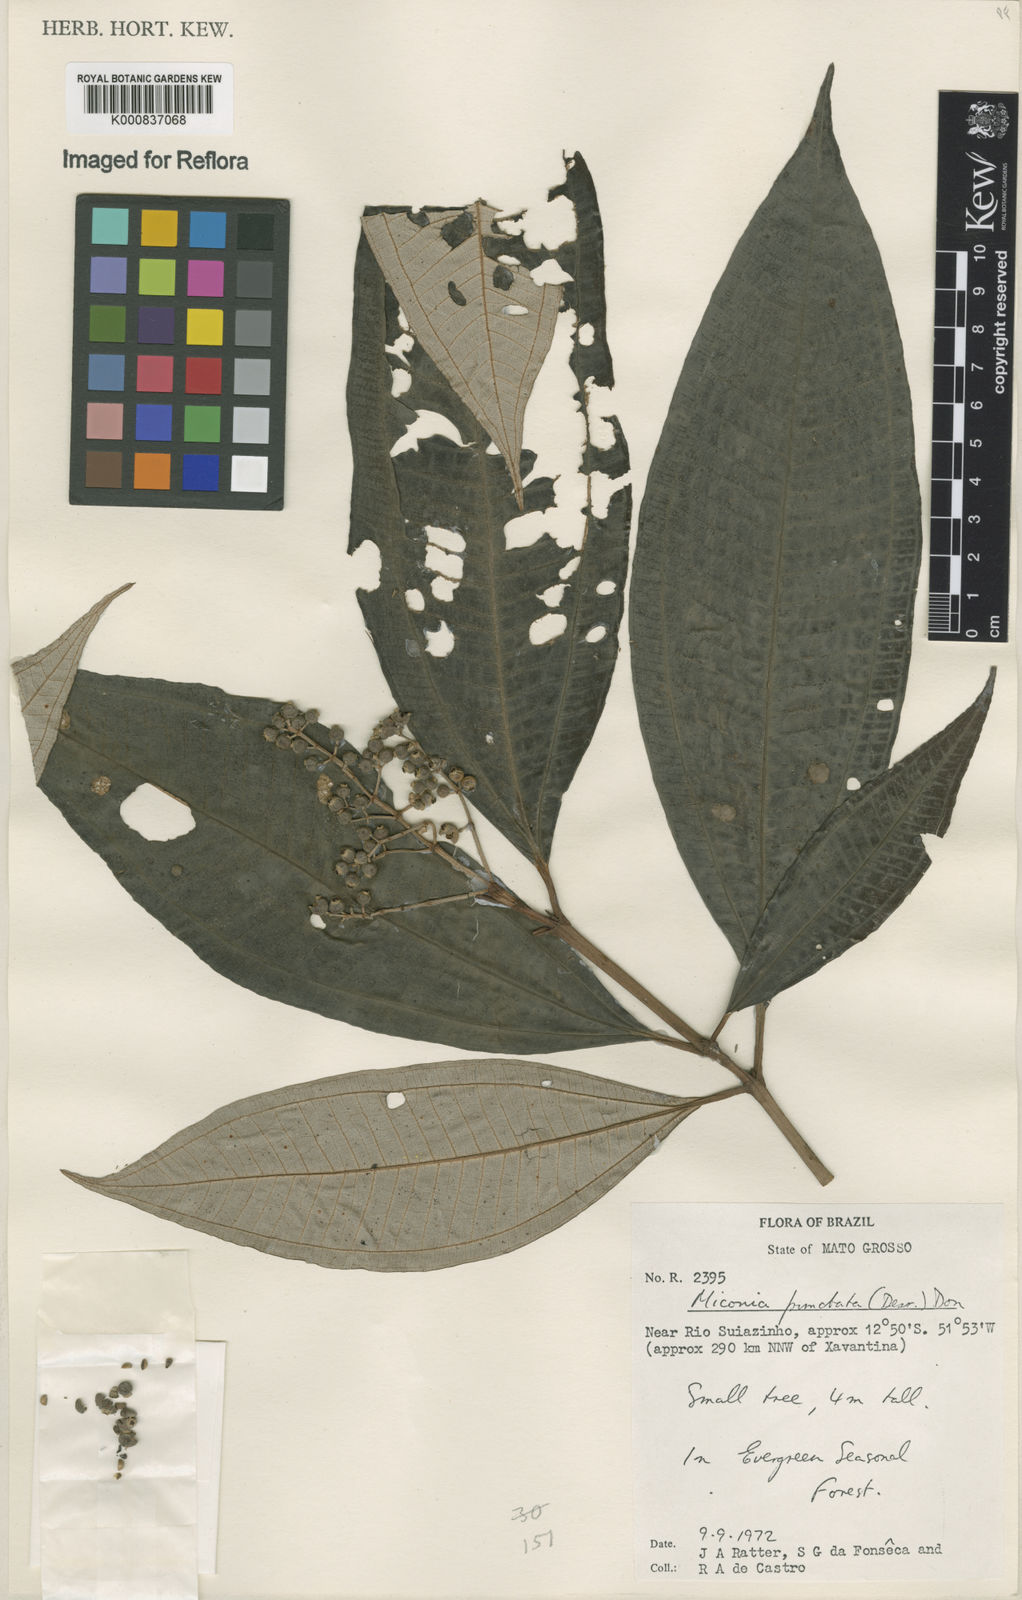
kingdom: Plantae
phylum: Tracheophyta
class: Magnoliopsida
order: Myrtales
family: Melastomataceae
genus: Miconia
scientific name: Miconia punctata
